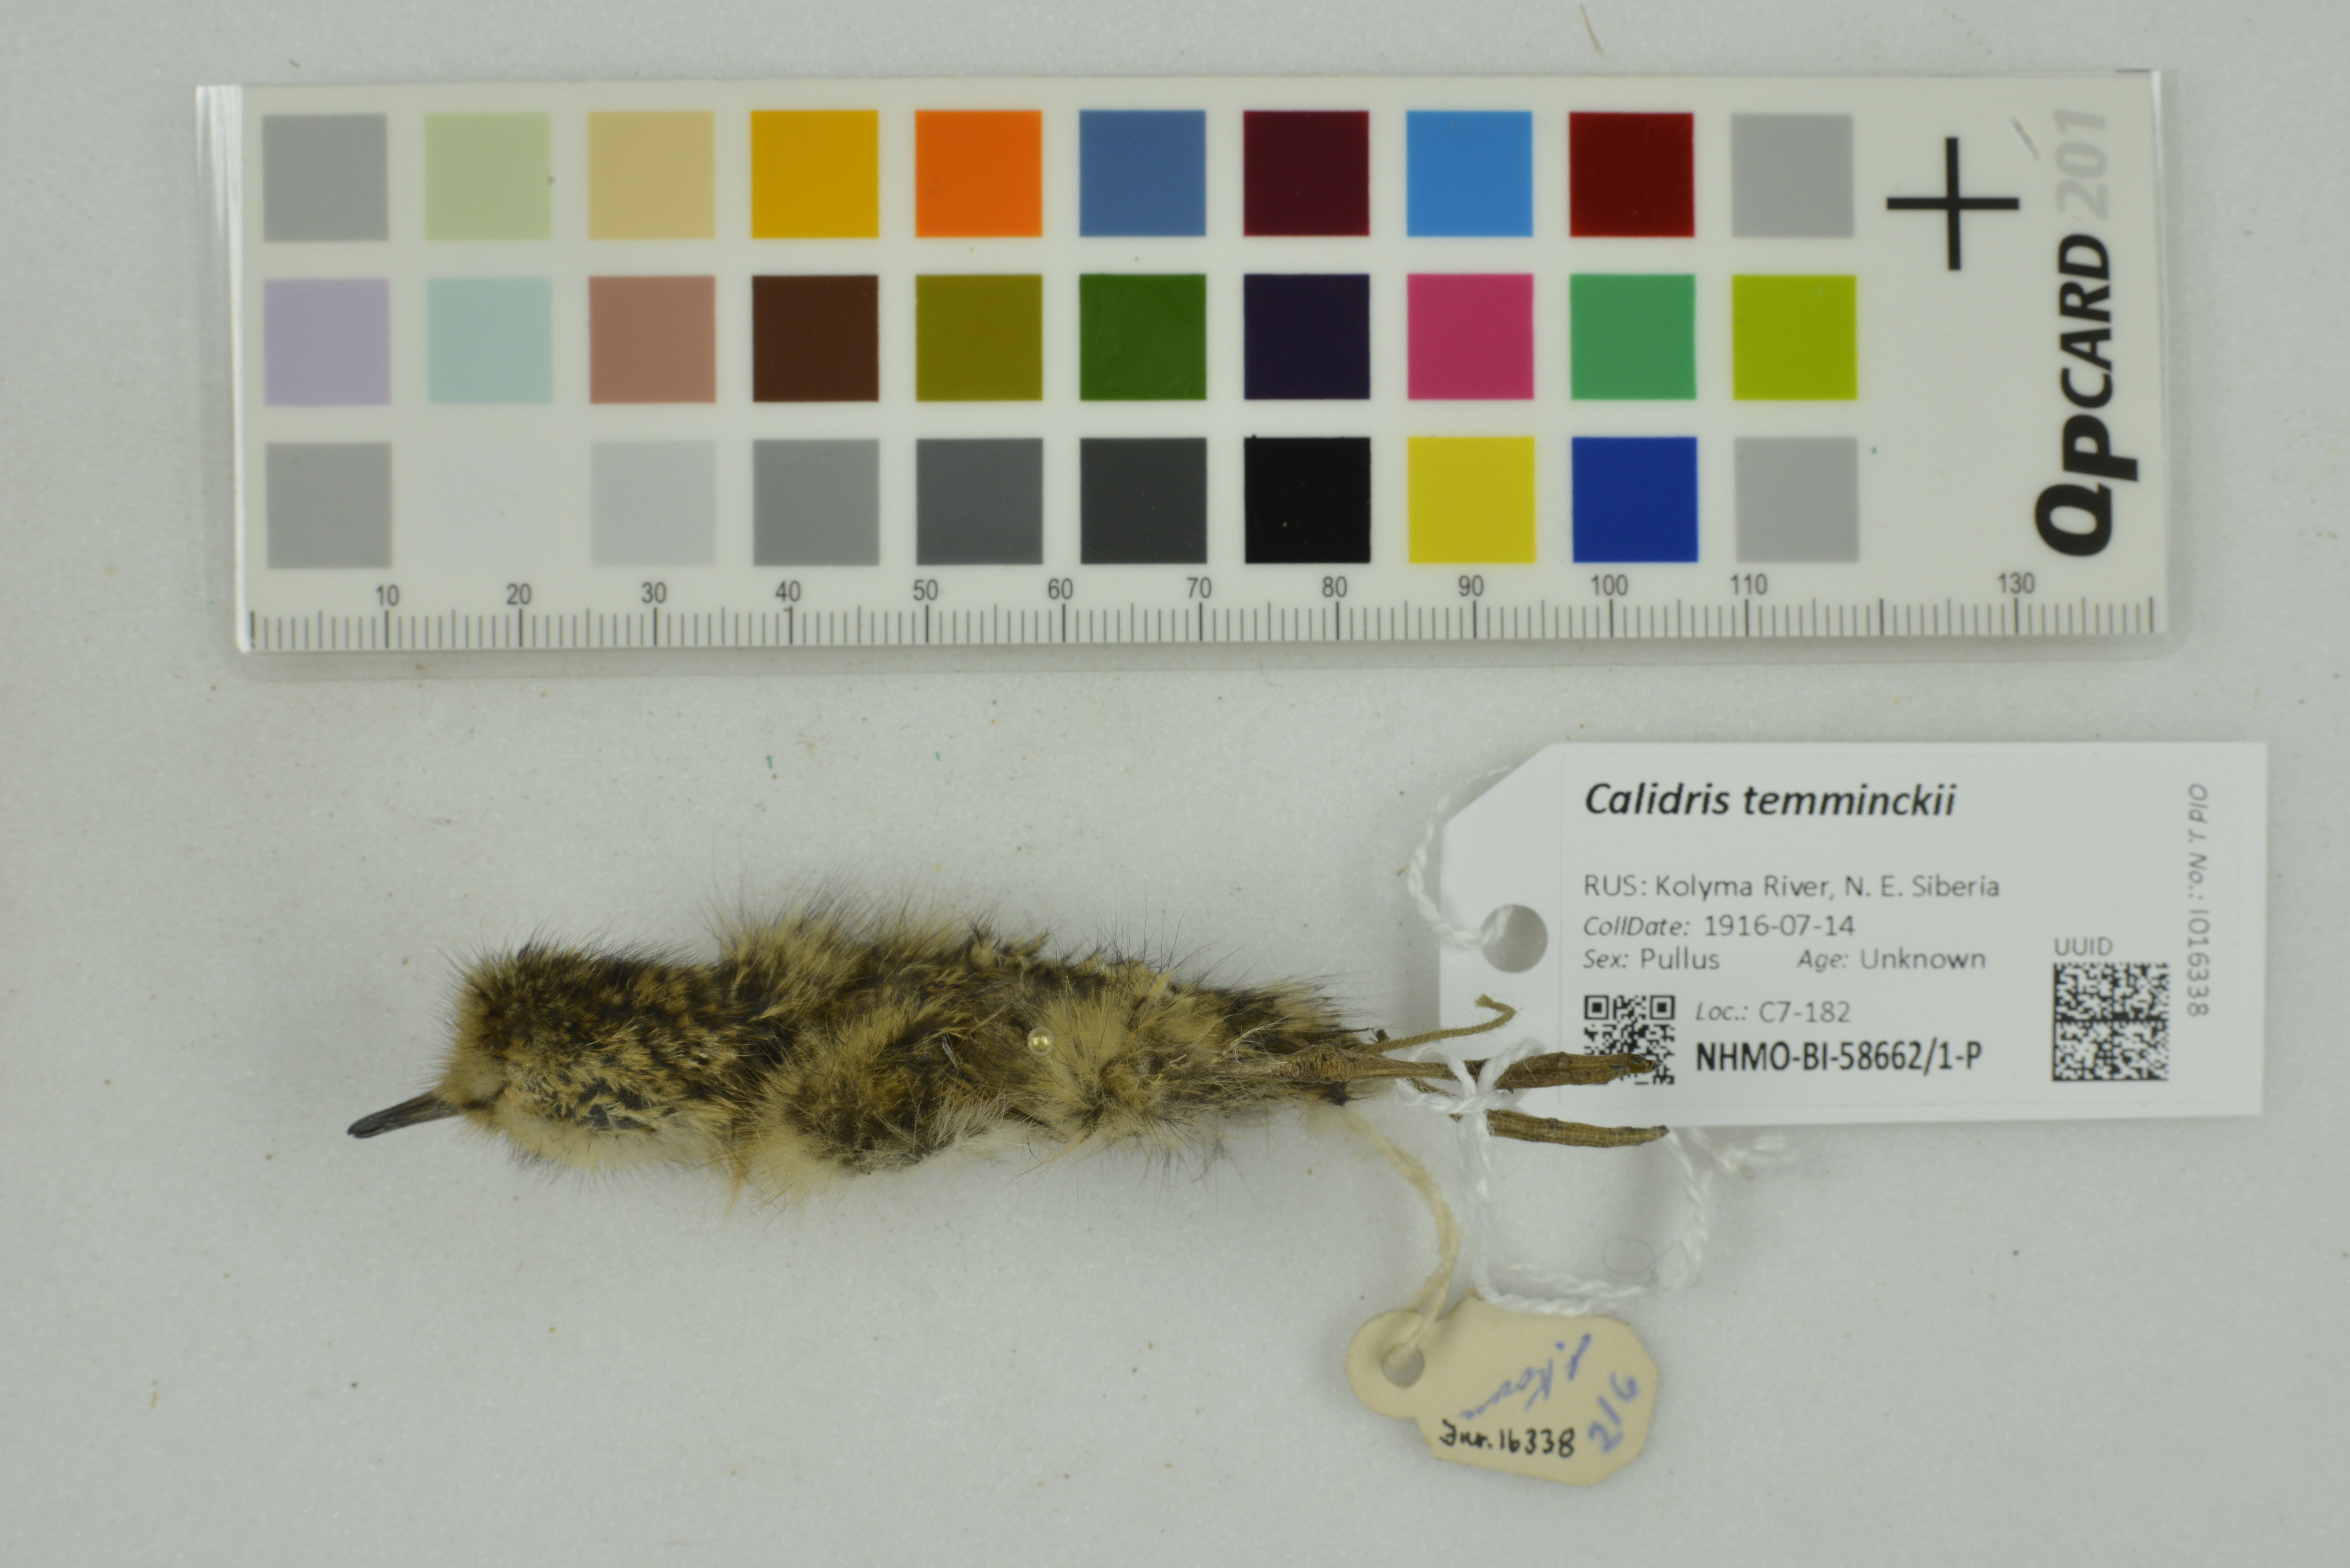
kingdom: Animalia
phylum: Chordata
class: Aves
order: Charadriiformes
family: Scolopacidae
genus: Calidris
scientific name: Calidris temminckii
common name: Temminck's stint
